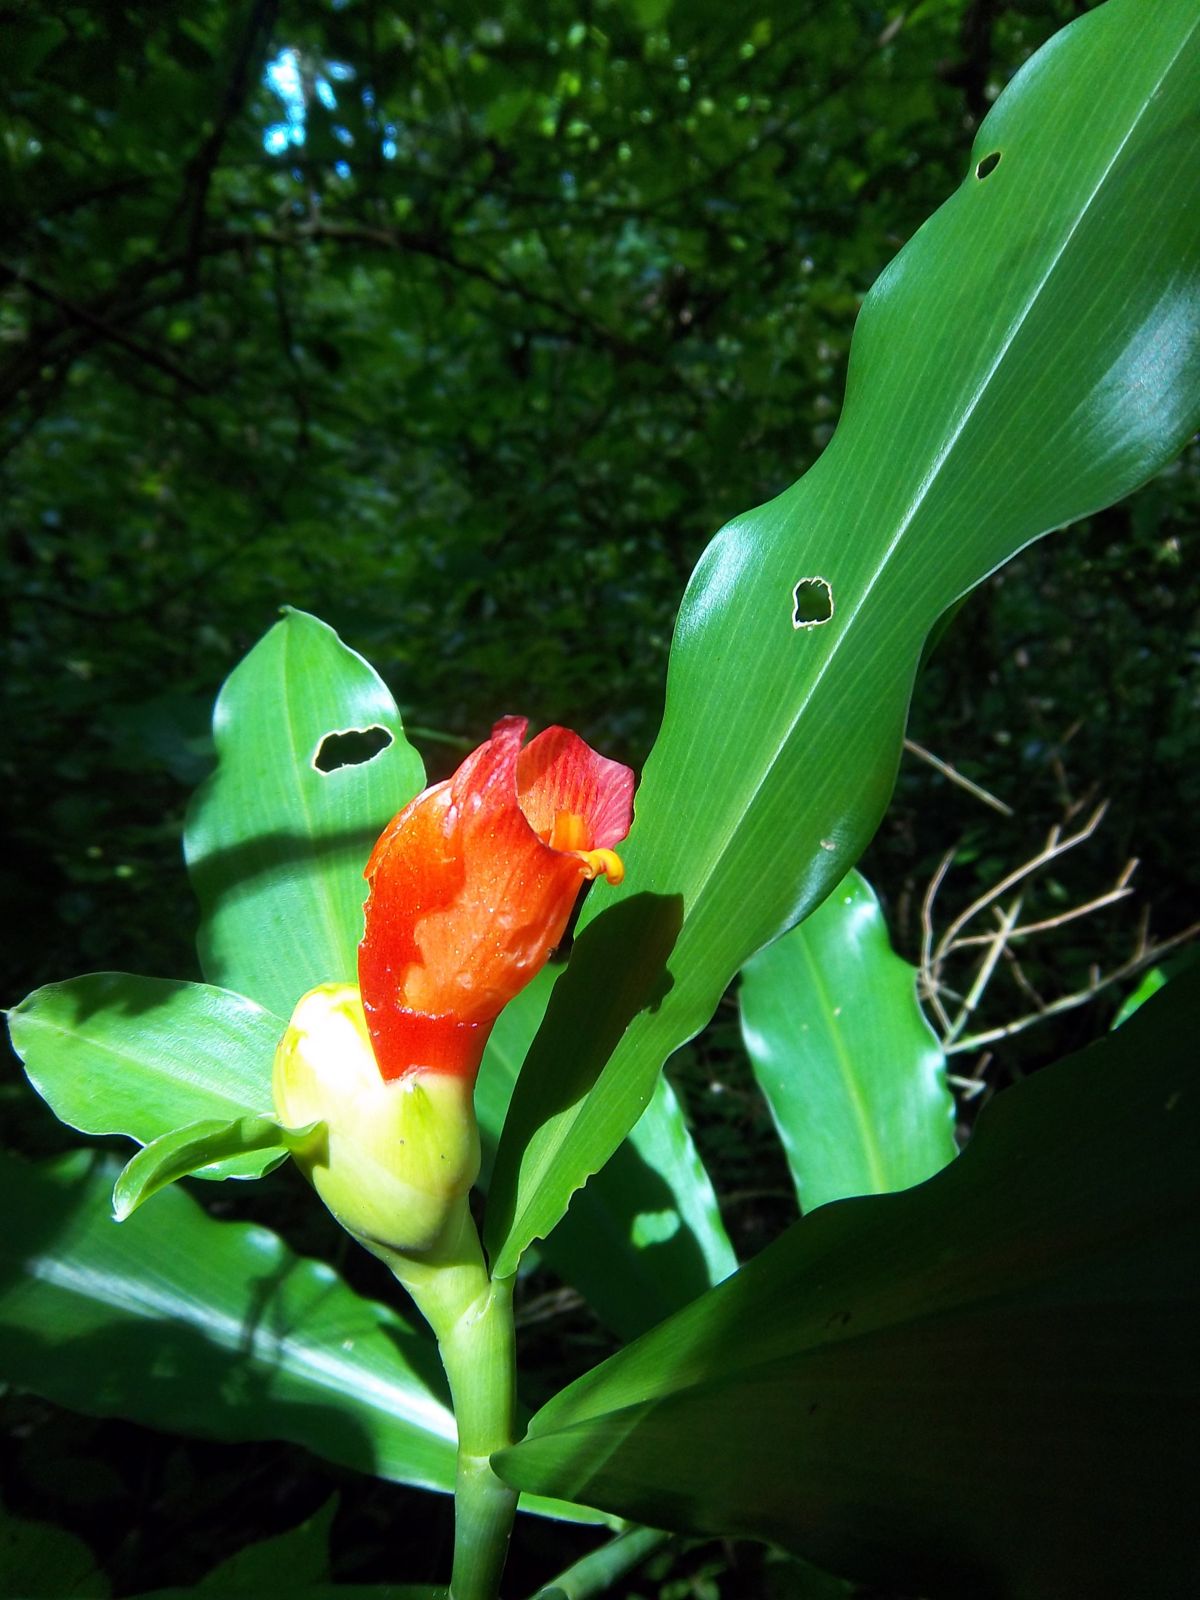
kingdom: Plantae
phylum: Tracheophyta
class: Liliopsida
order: Zingiberales
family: Costaceae
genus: Costus
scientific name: Costus pictus
